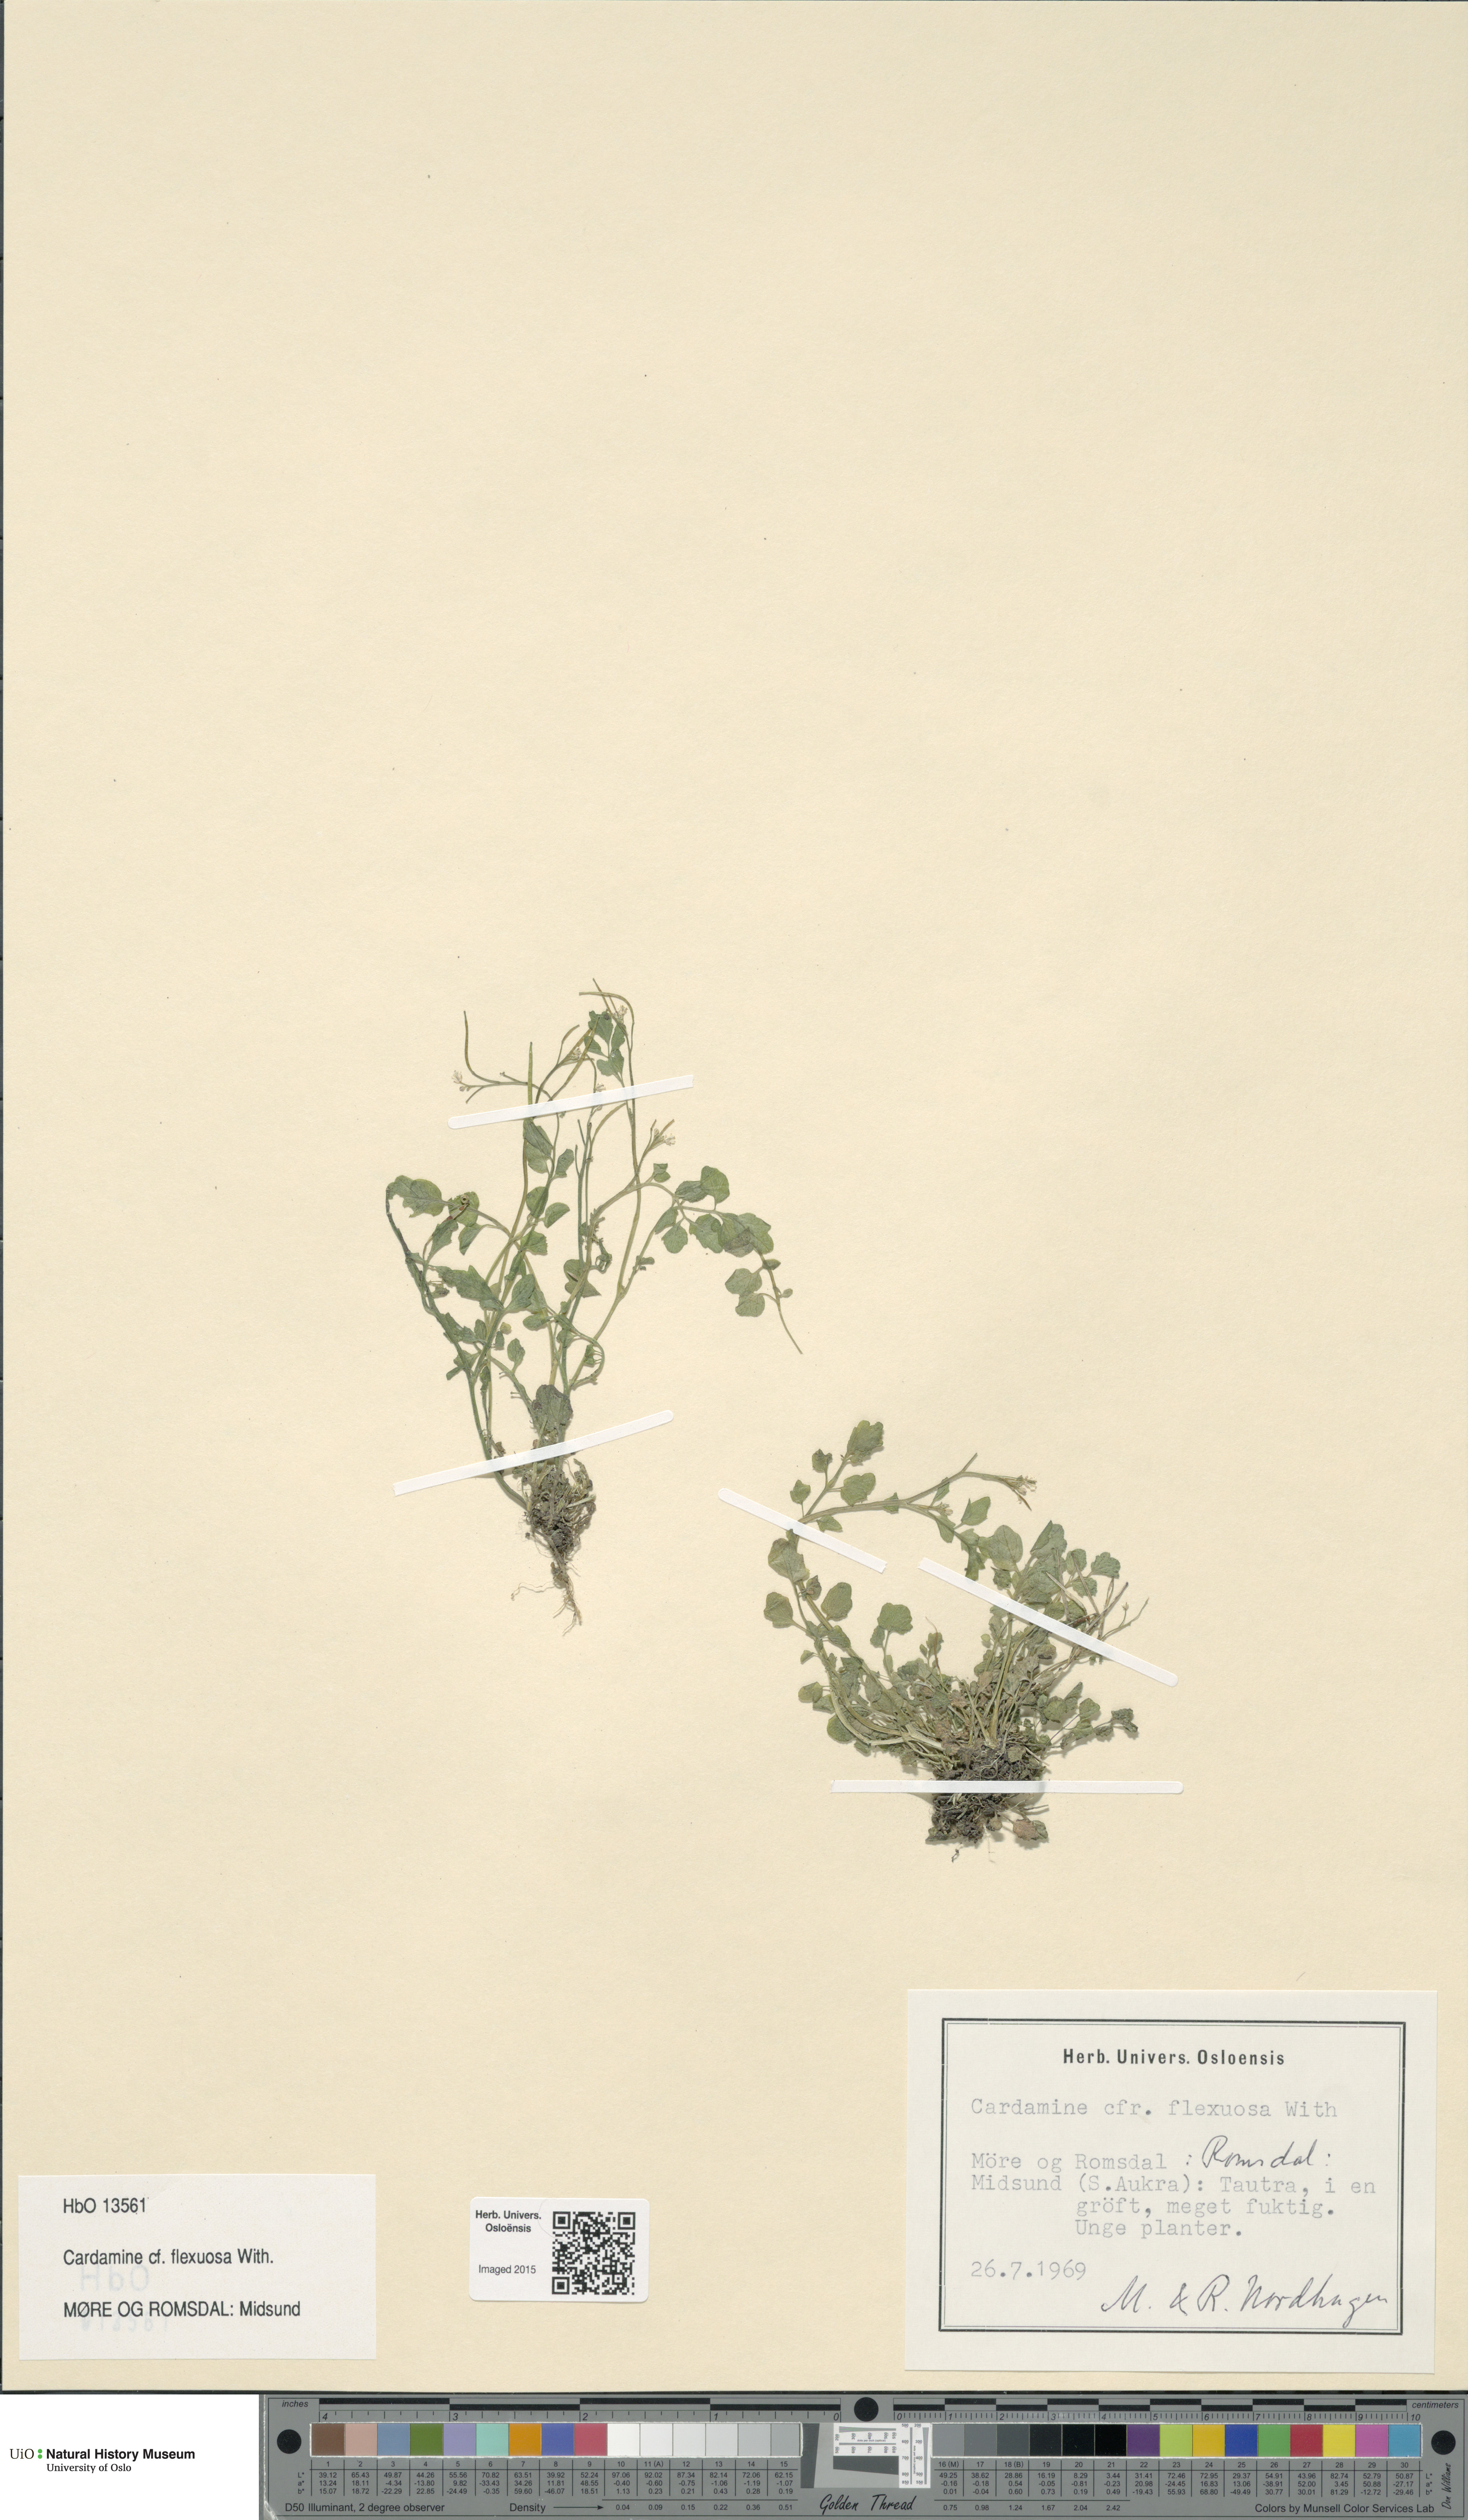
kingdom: Plantae
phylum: Tracheophyta
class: Magnoliopsida
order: Brassicales
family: Brassicaceae
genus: Cardamine
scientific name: Cardamine flexuosa
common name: Woodland bittercress
